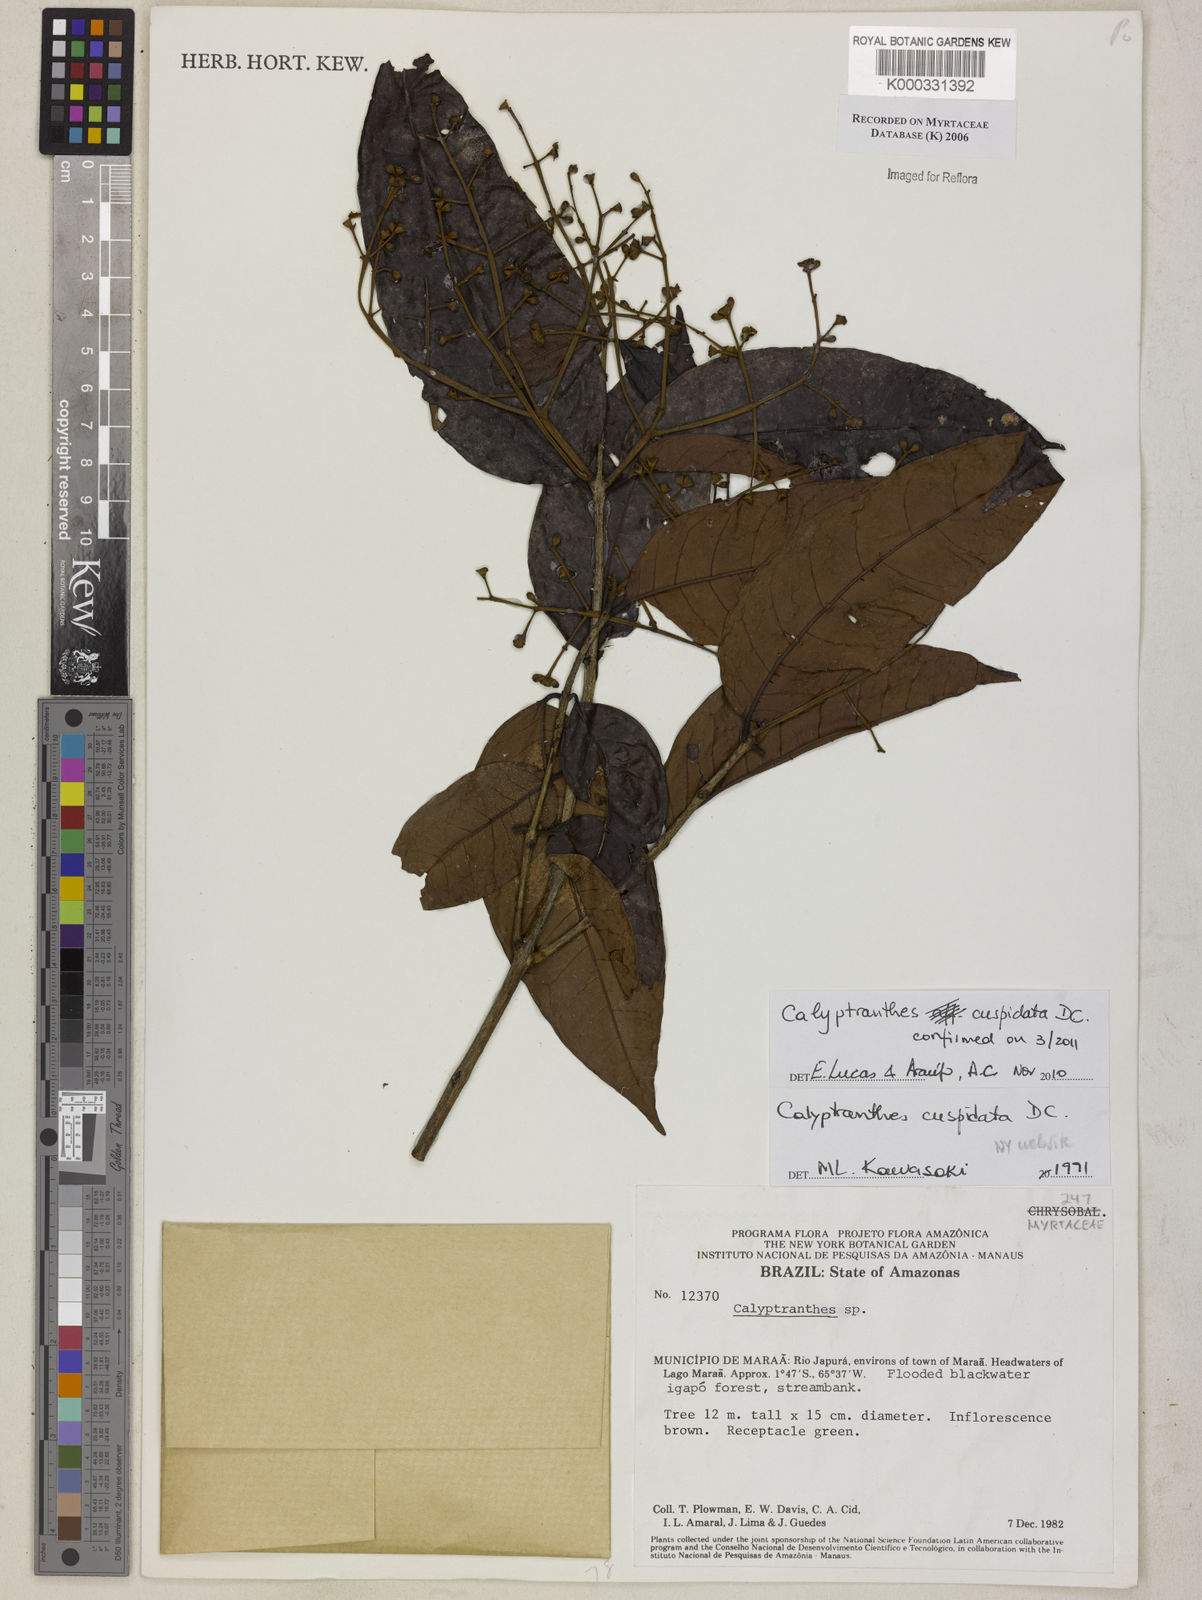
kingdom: Plantae
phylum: Tracheophyta
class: Magnoliopsida
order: Myrtales
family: Myrtaceae
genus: Calyptranthes
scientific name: Calyptranthes
